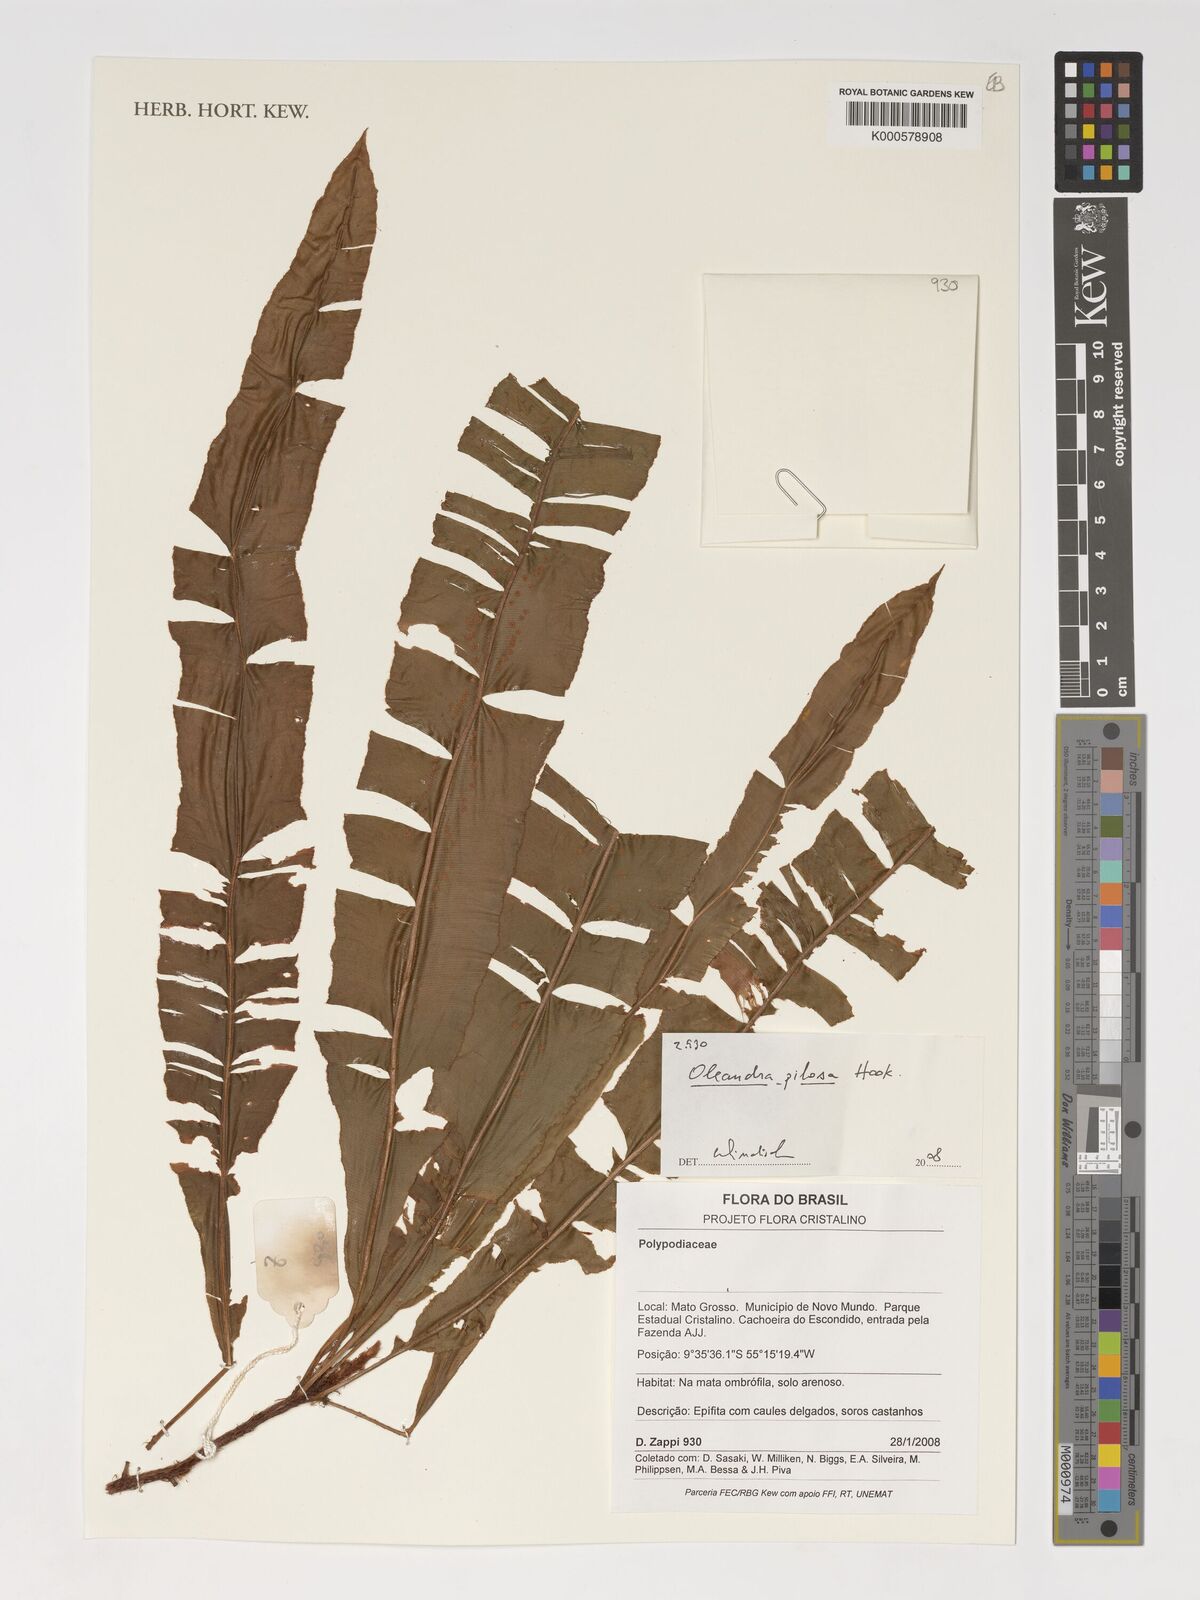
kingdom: Plantae
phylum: Tracheophyta
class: Polypodiopsida
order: Polypodiales
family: Oleandraceae
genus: Oleandra
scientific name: Oleandra pilosa
